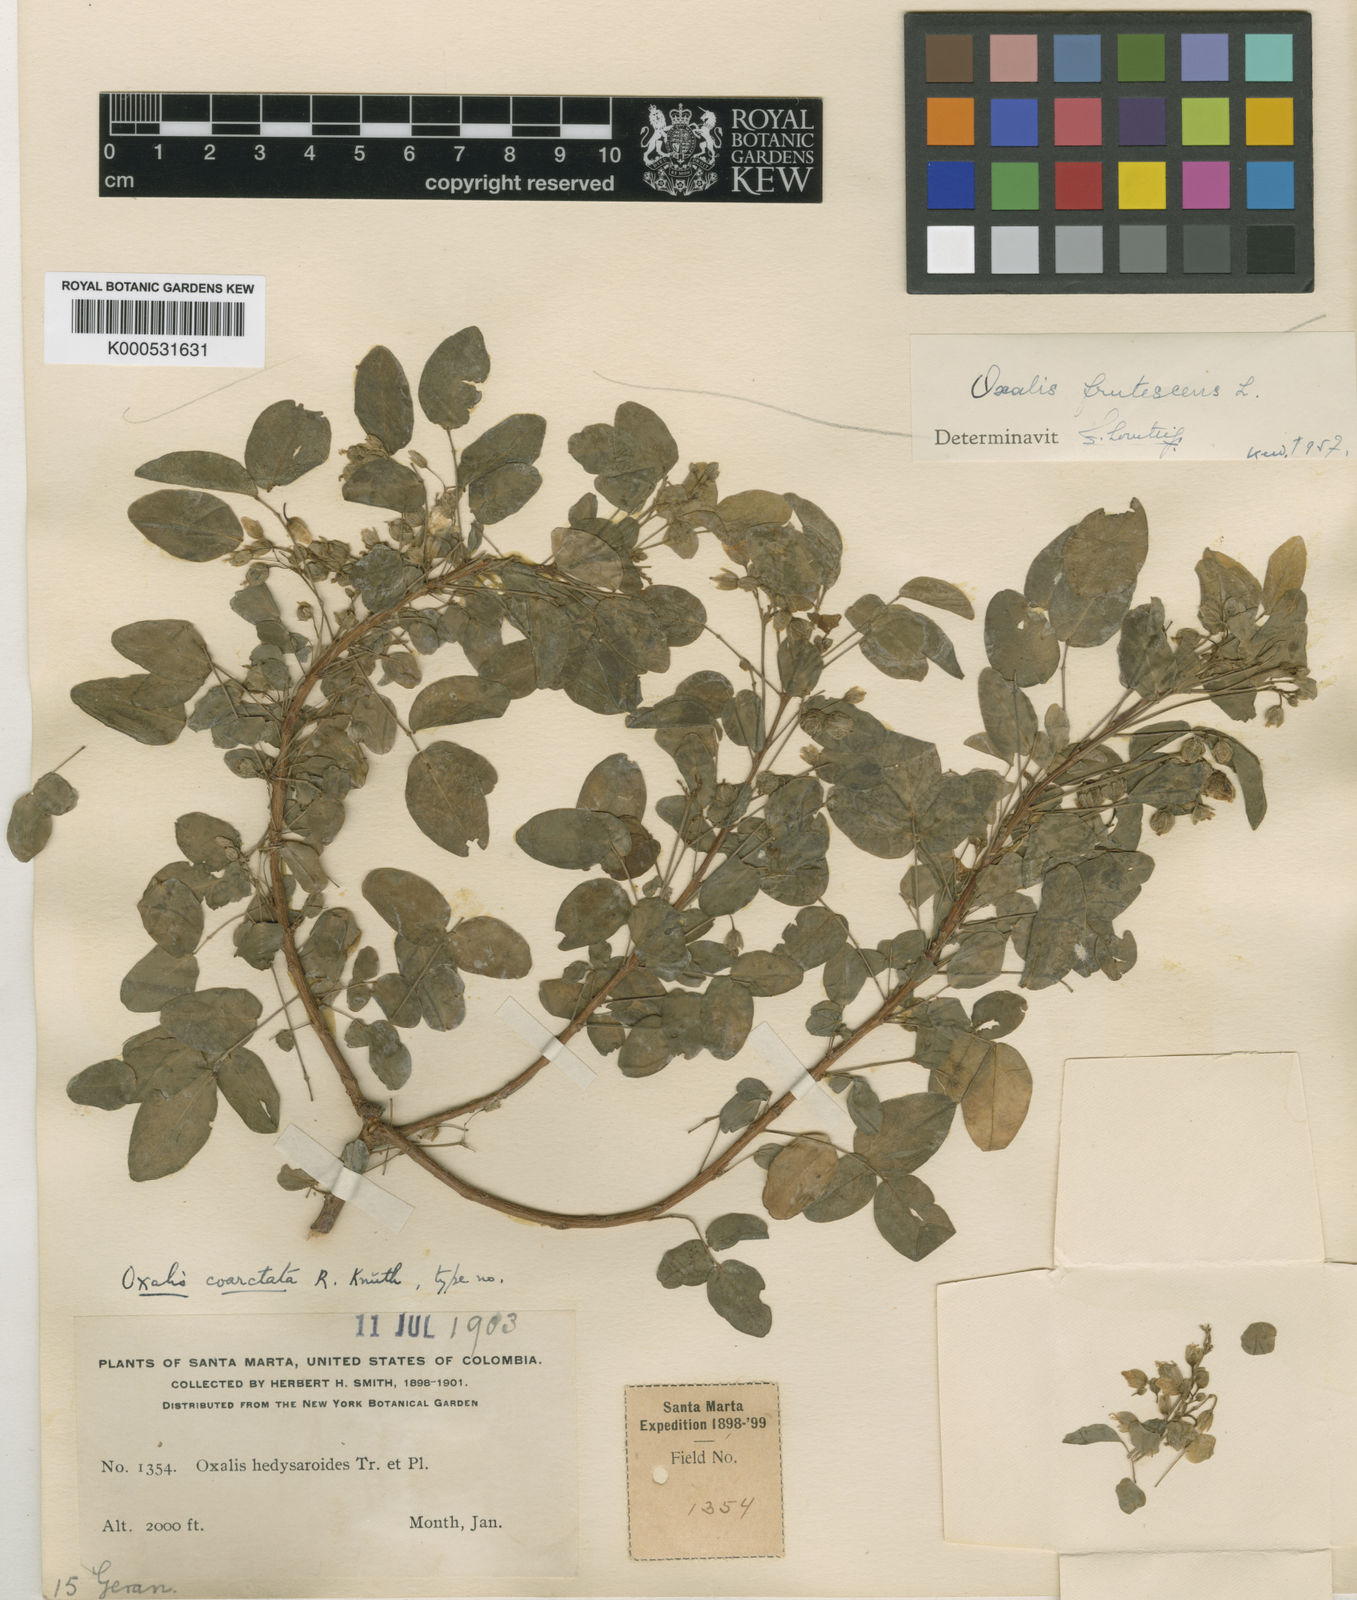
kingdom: Plantae
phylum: Tracheophyta
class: Magnoliopsida
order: Oxalidales
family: Oxalidaceae
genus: Oxalis
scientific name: Oxalis frutescens
